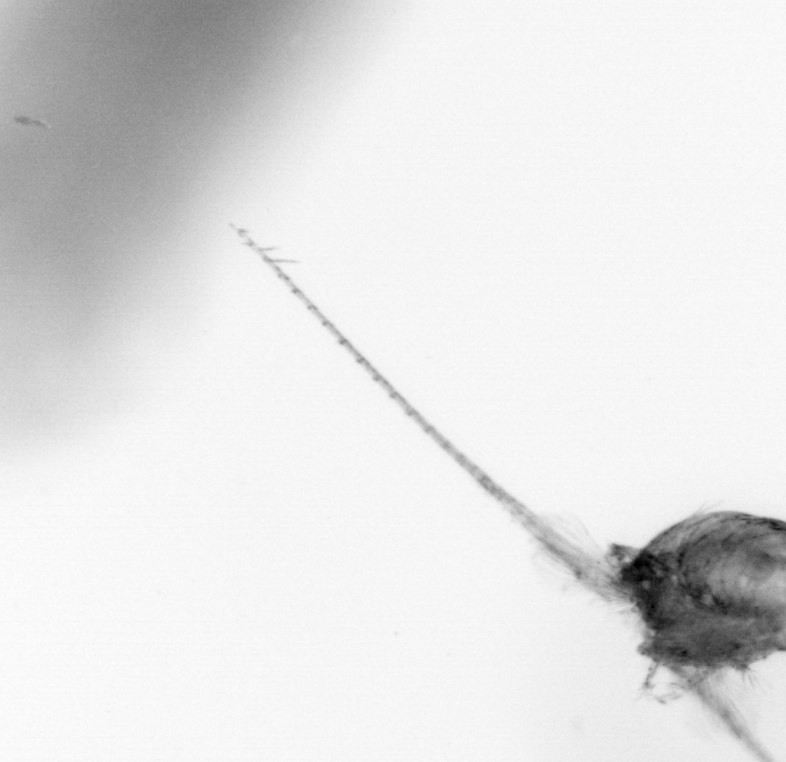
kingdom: Animalia
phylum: Arthropoda
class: Copepoda
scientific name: Copepoda
